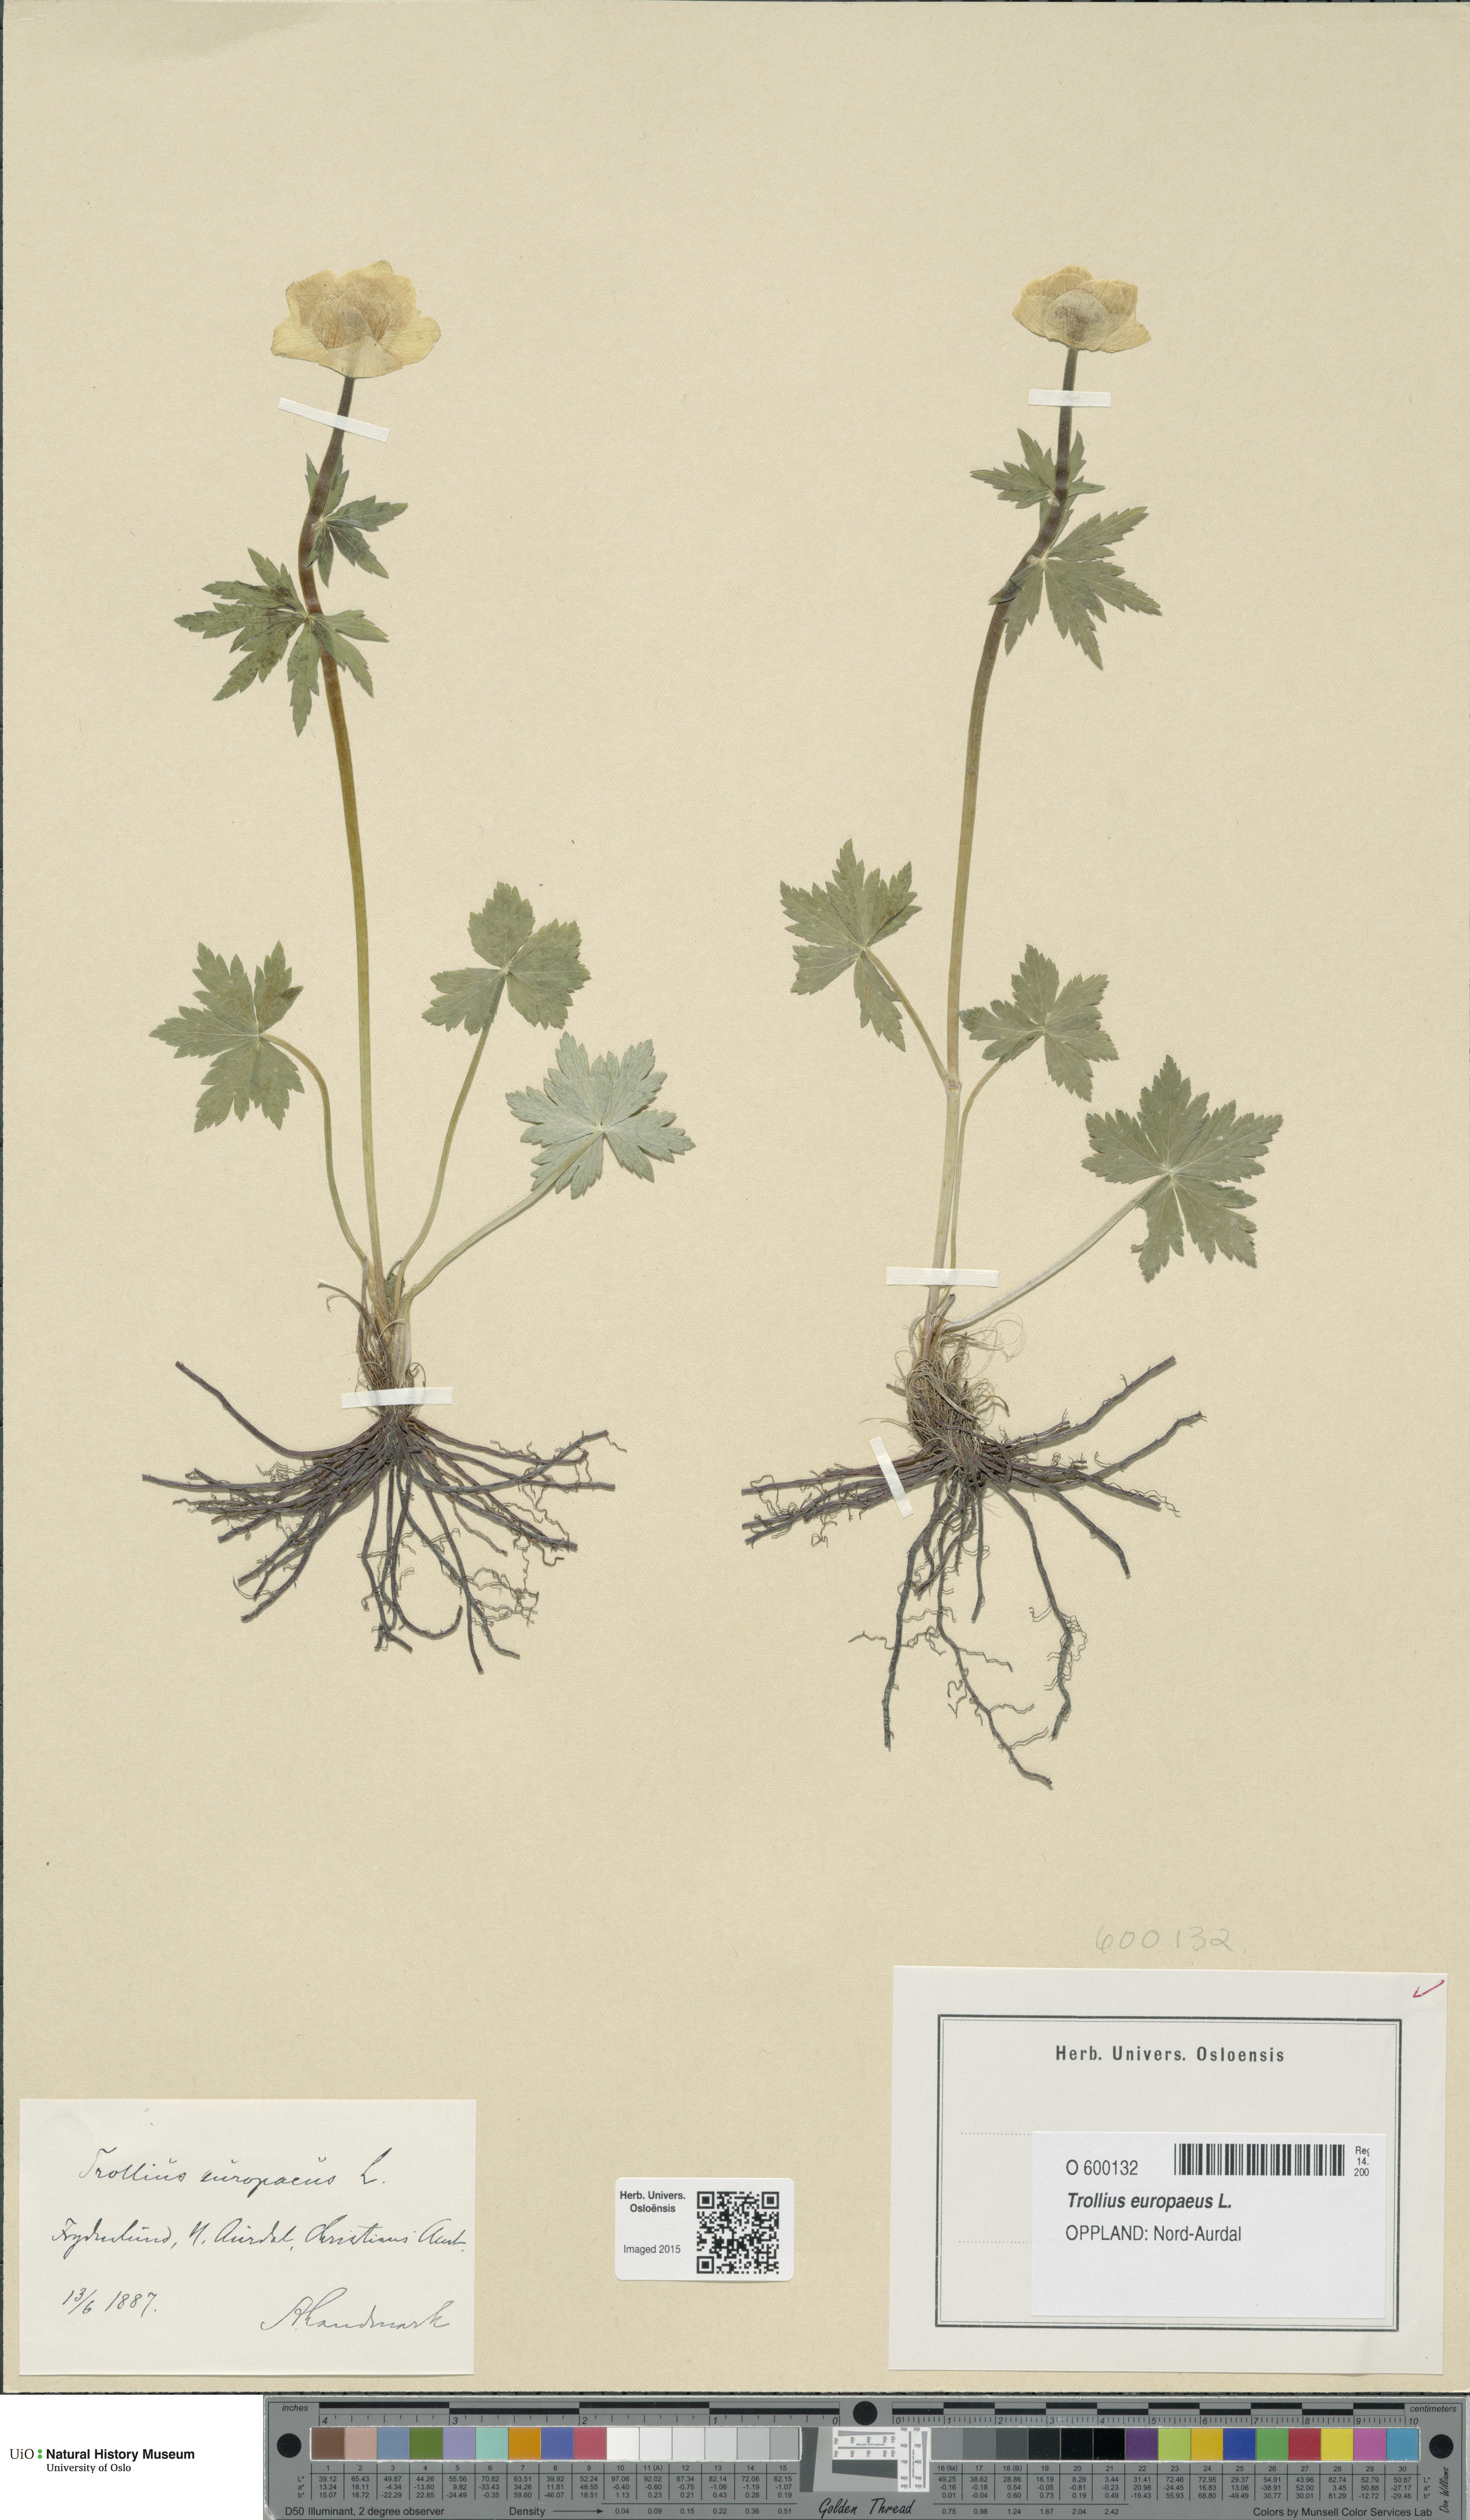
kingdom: Plantae
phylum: Tracheophyta
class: Magnoliopsida
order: Ranunculales
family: Ranunculaceae
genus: Trollius
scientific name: Trollius europaeus
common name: European globeflower
